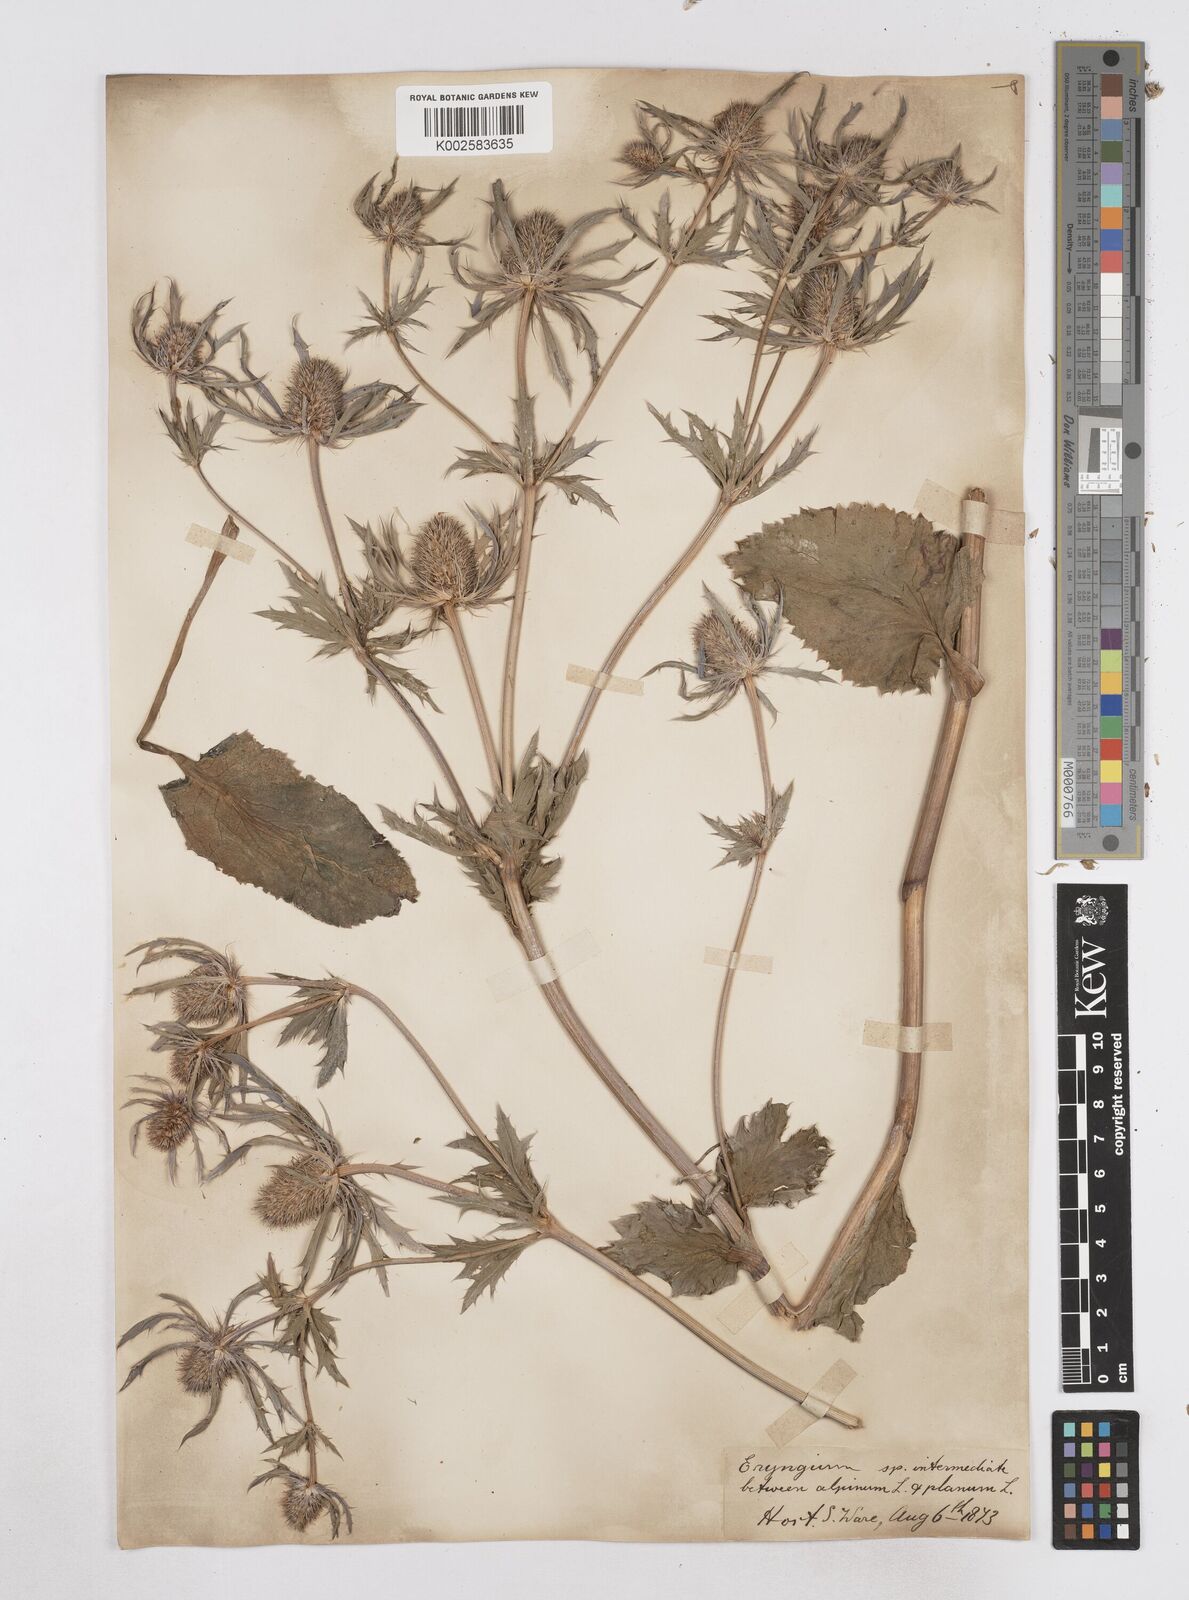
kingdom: Plantae
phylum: Tracheophyta
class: Magnoliopsida
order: Apiales
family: Apiaceae
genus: Eryngium
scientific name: Eryngium planum
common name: Blue eryngo
